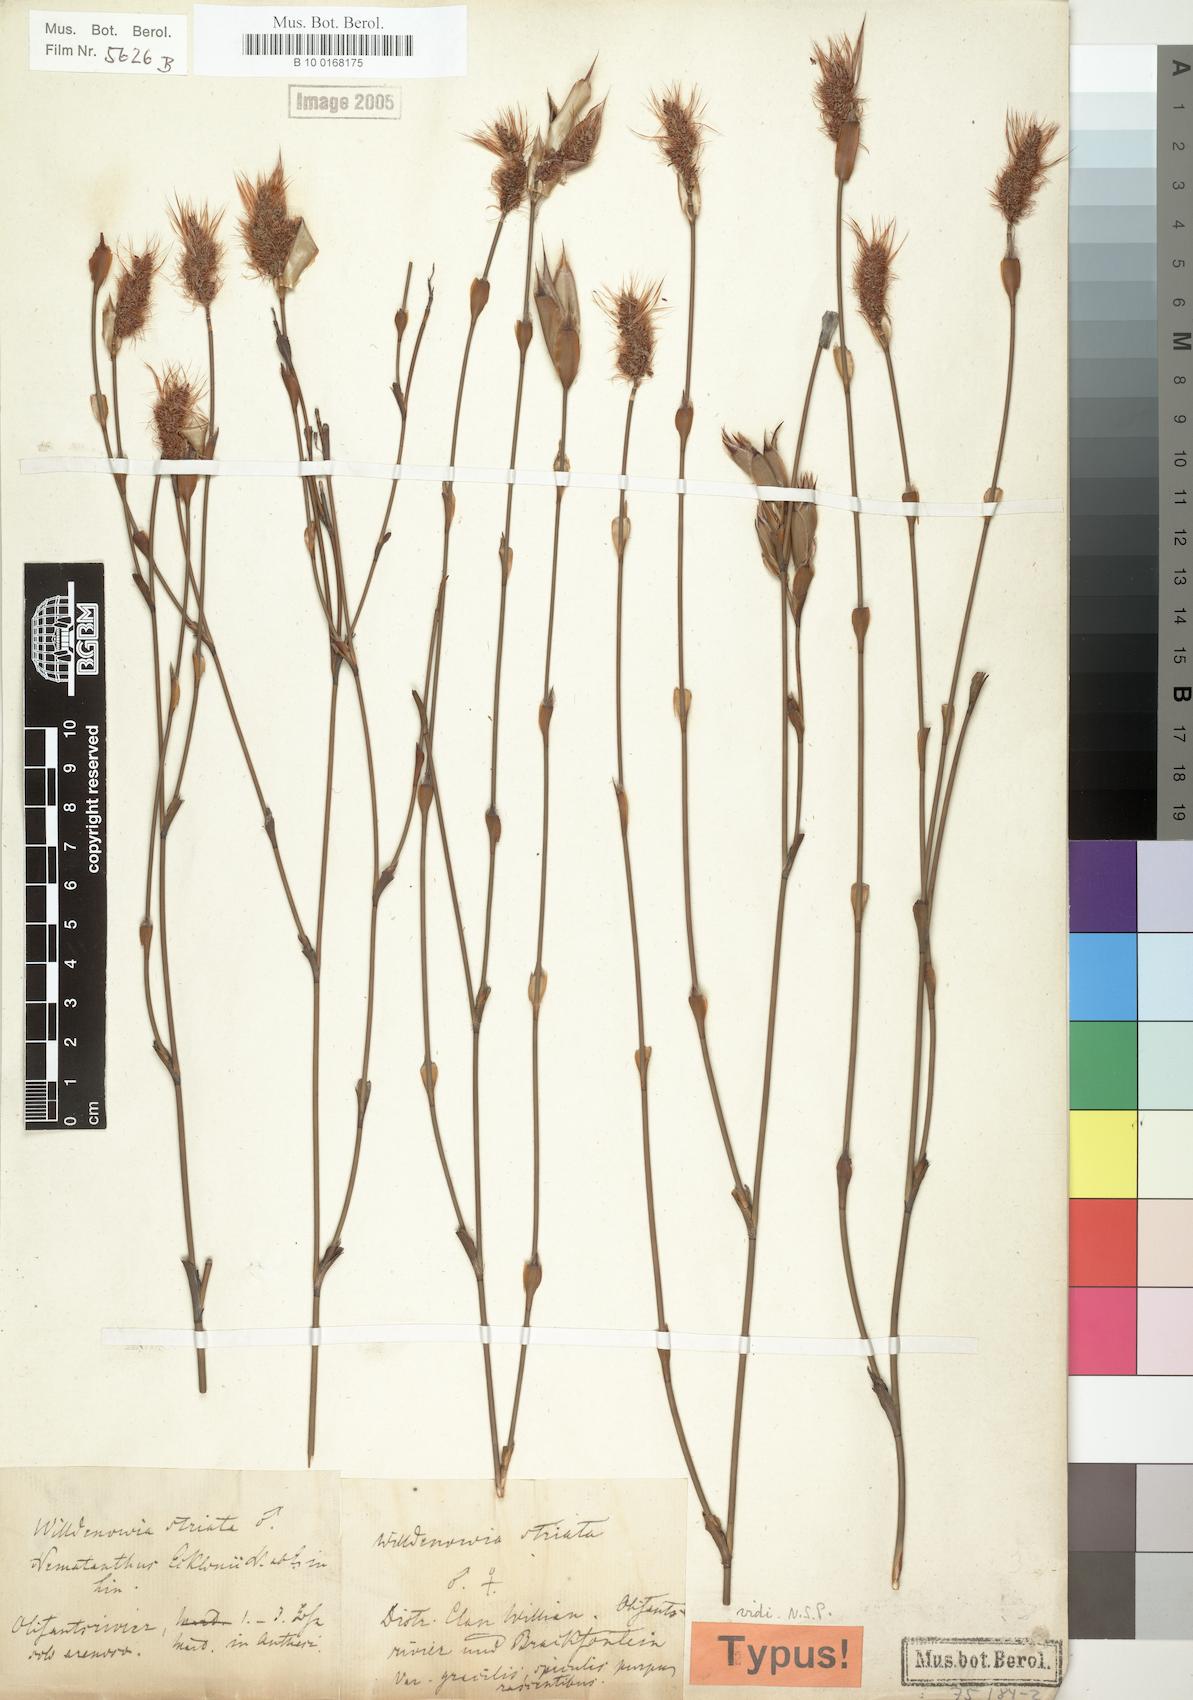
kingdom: Plantae
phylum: Tracheophyta
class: Liliopsida
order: Poales
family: Restionaceae
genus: Willdenowia
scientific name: Willdenowia incurvata
